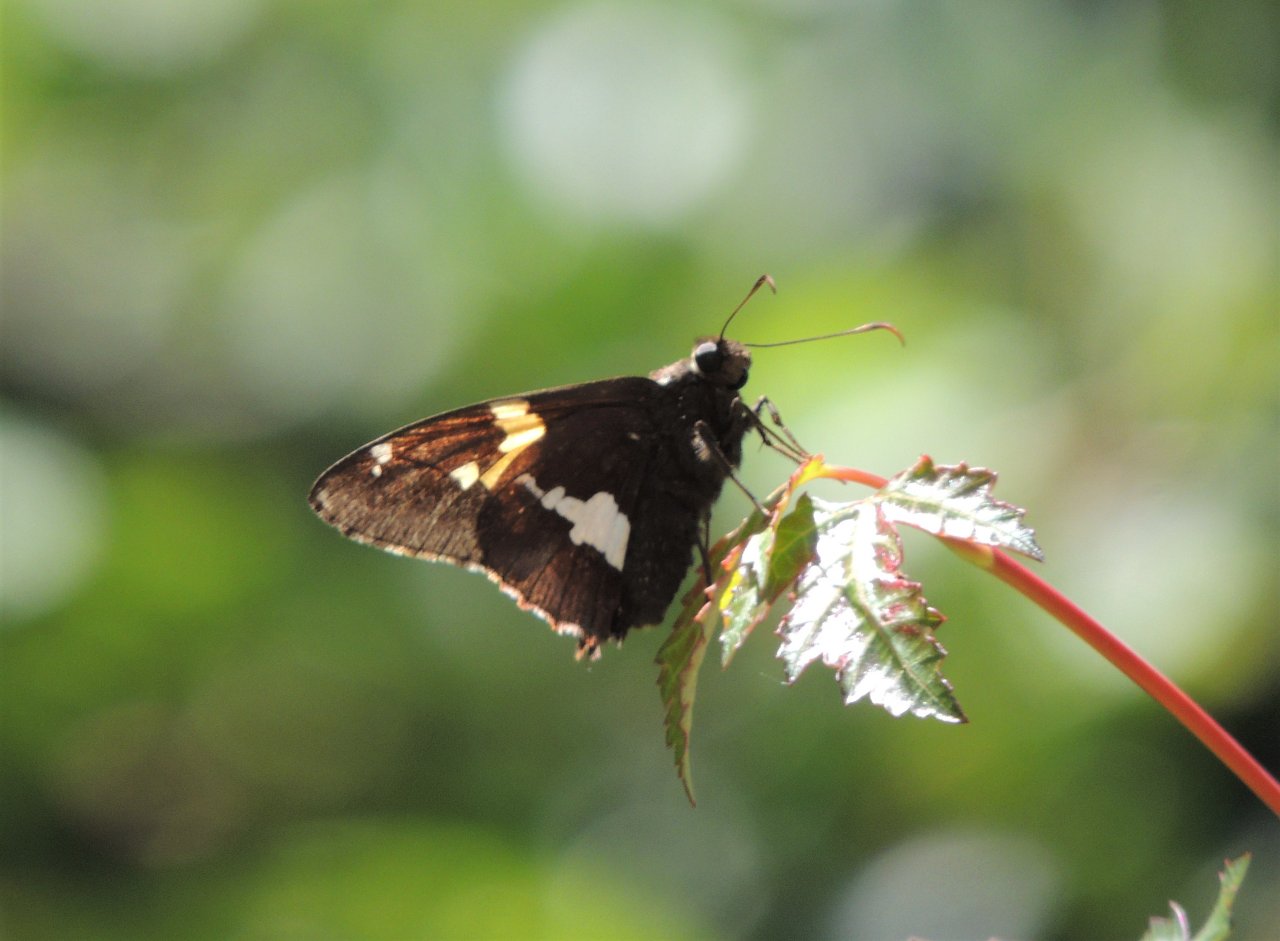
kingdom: Animalia
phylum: Arthropoda
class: Insecta
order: Lepidoptera
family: Hesperiidae
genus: Epargyreus
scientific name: Epargyreus clarus
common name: Silver-spotted Skipper
